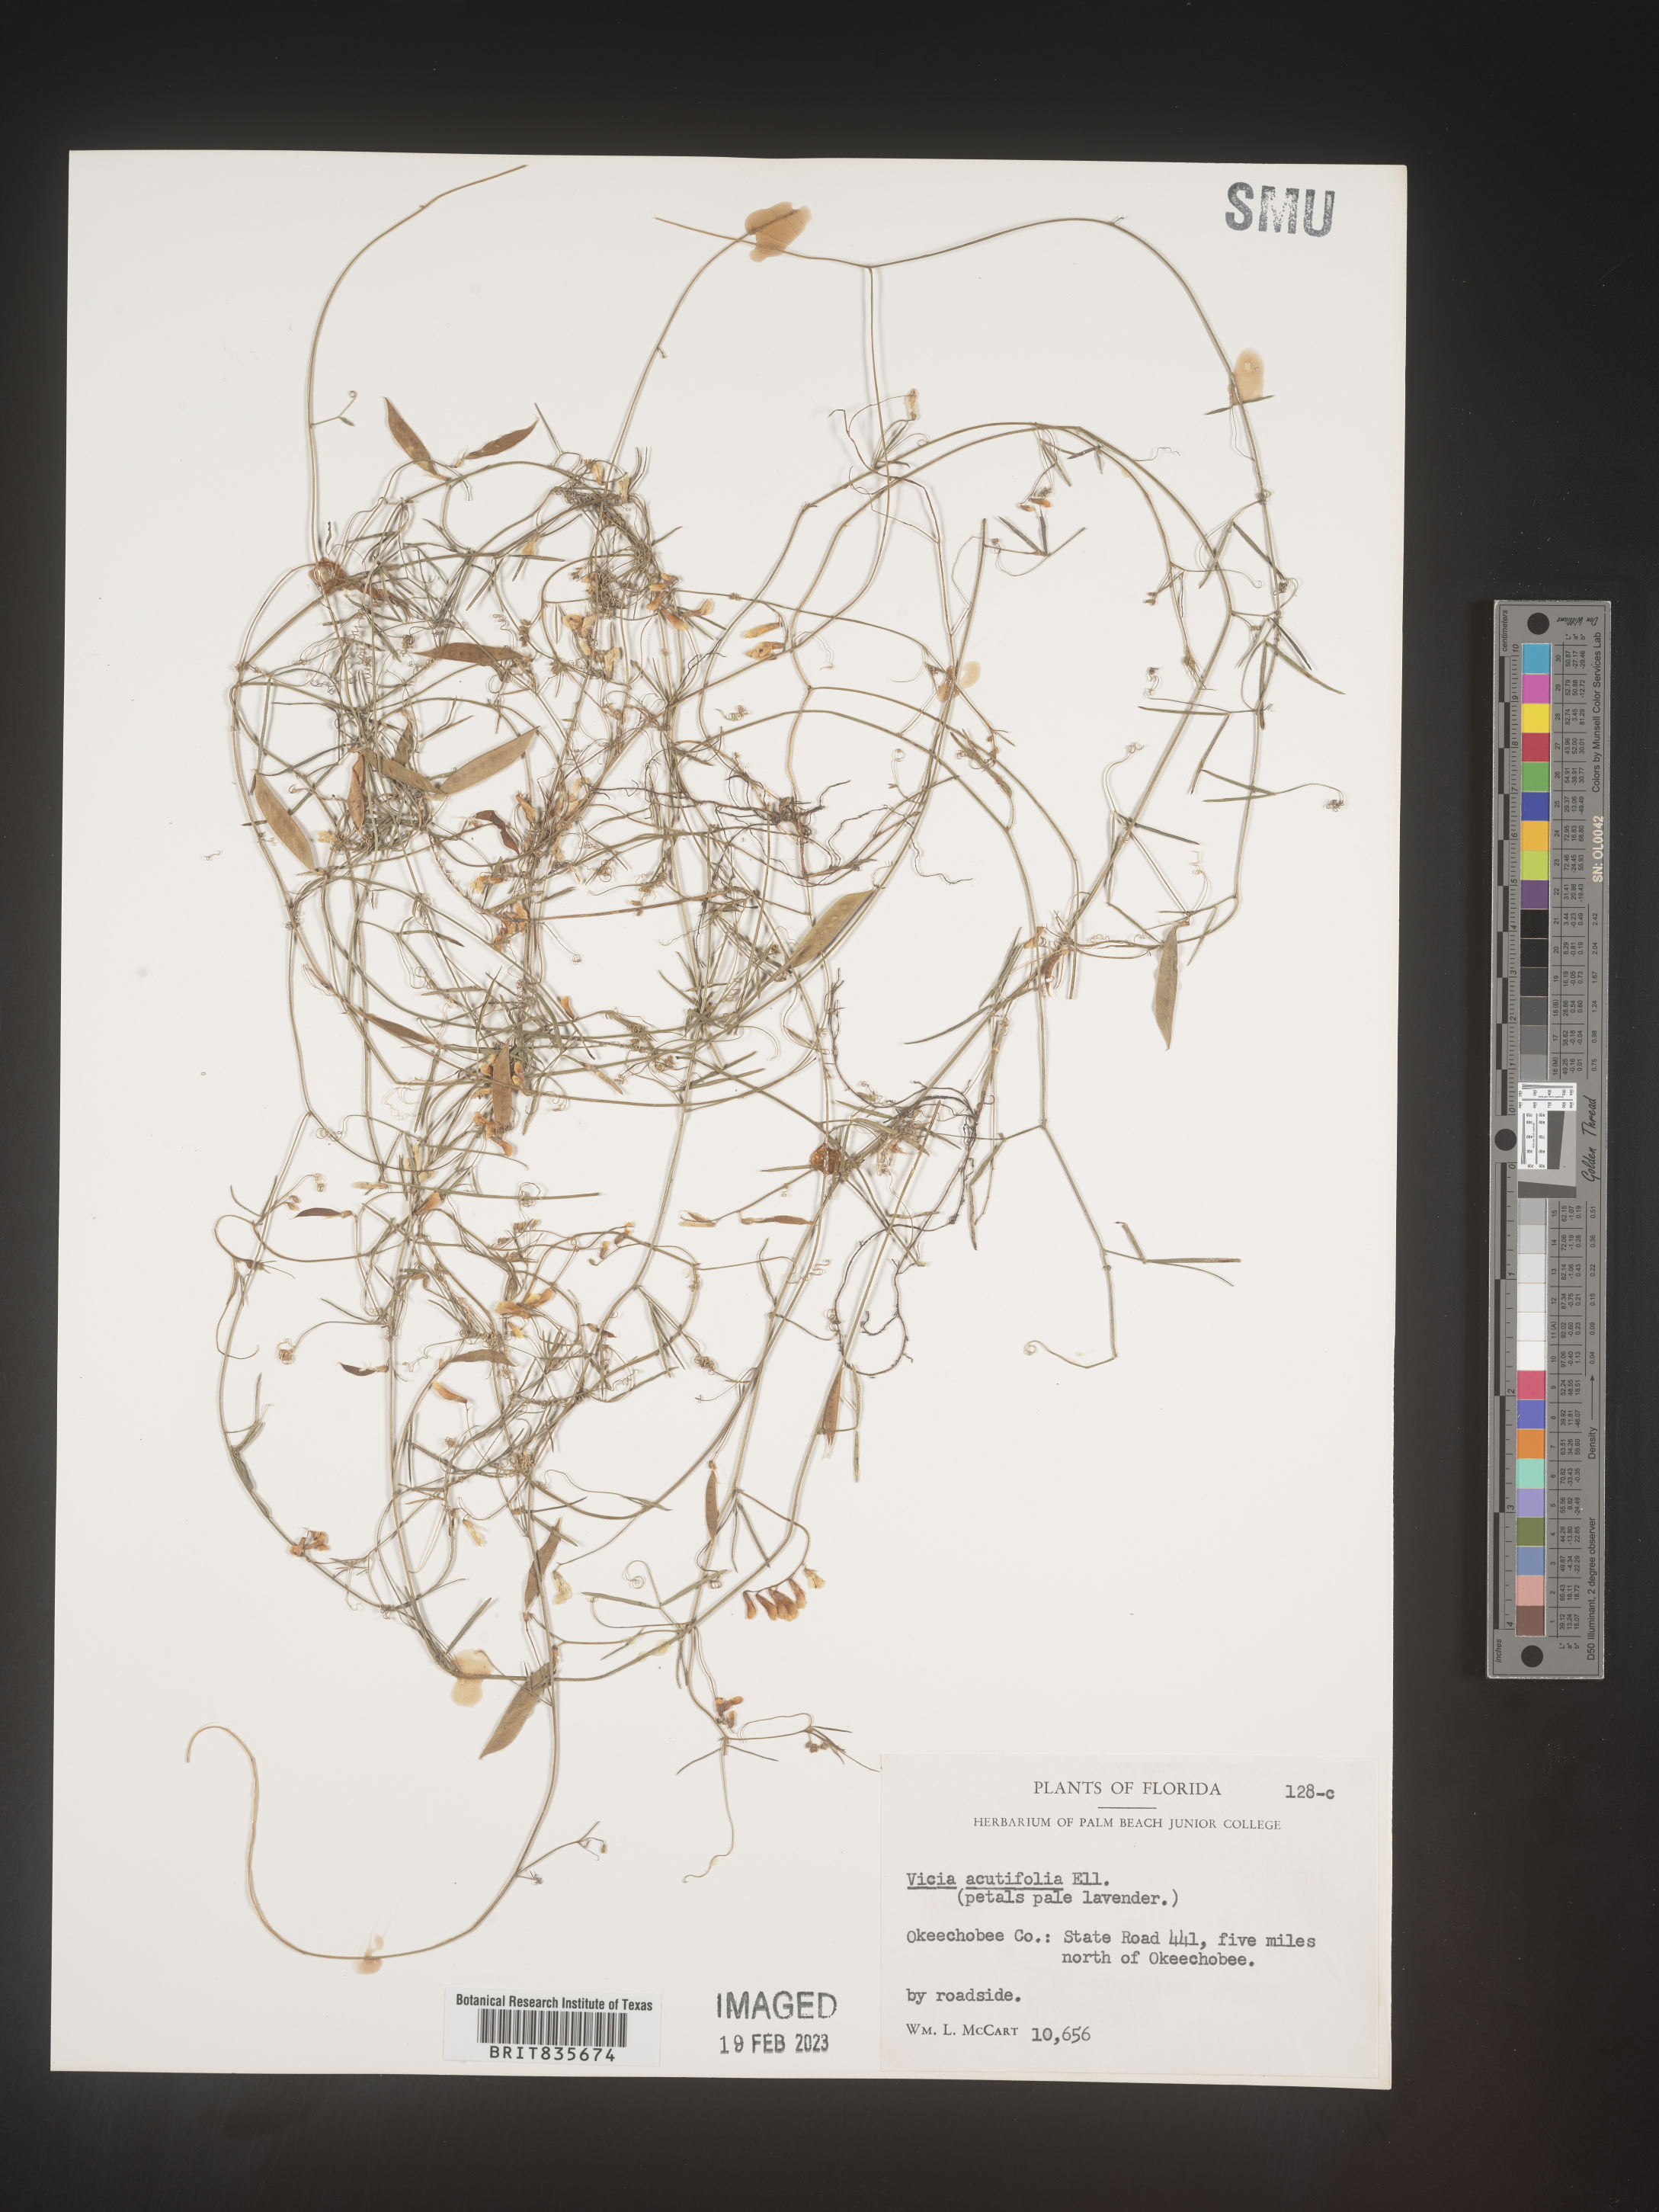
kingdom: Plantae
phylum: Tracheophyta
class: Magnoliopsida
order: Fabales
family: Fabaceae
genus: Vicia
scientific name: Vicia acutifolia
